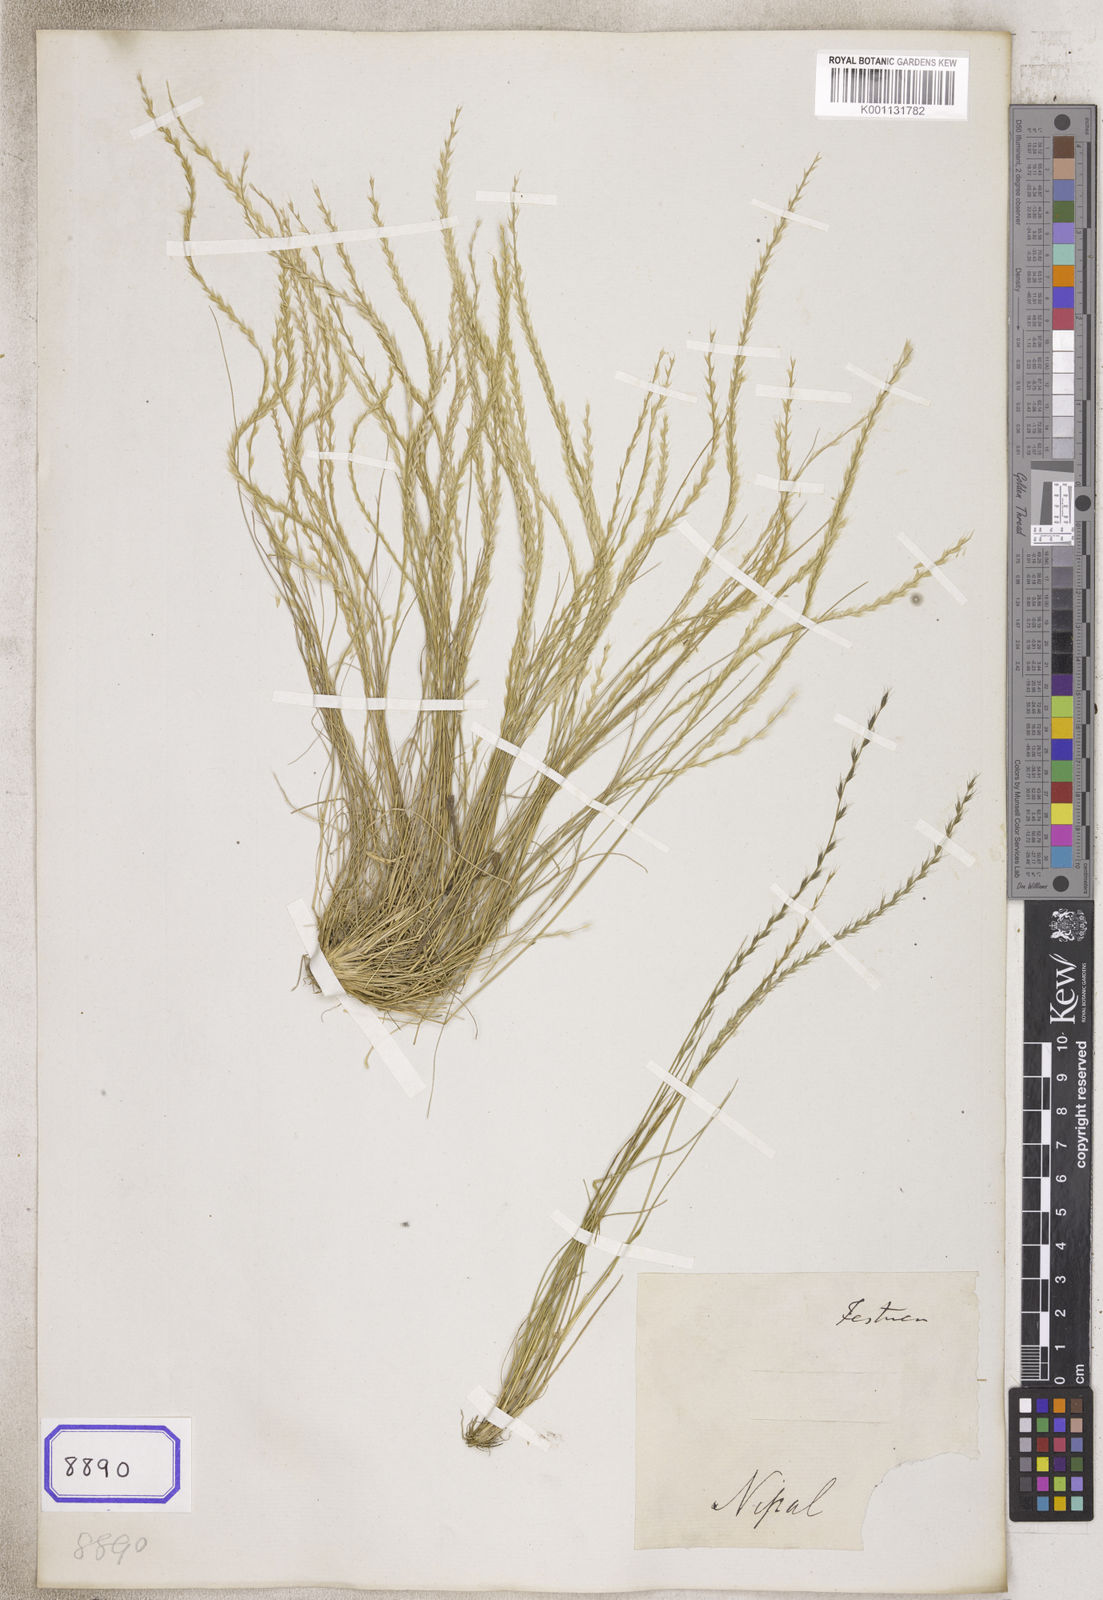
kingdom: Plantae
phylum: Tracheophyta
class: Liliopsida
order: Poales
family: Poaceae
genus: Tripogon
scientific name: Tripogon
